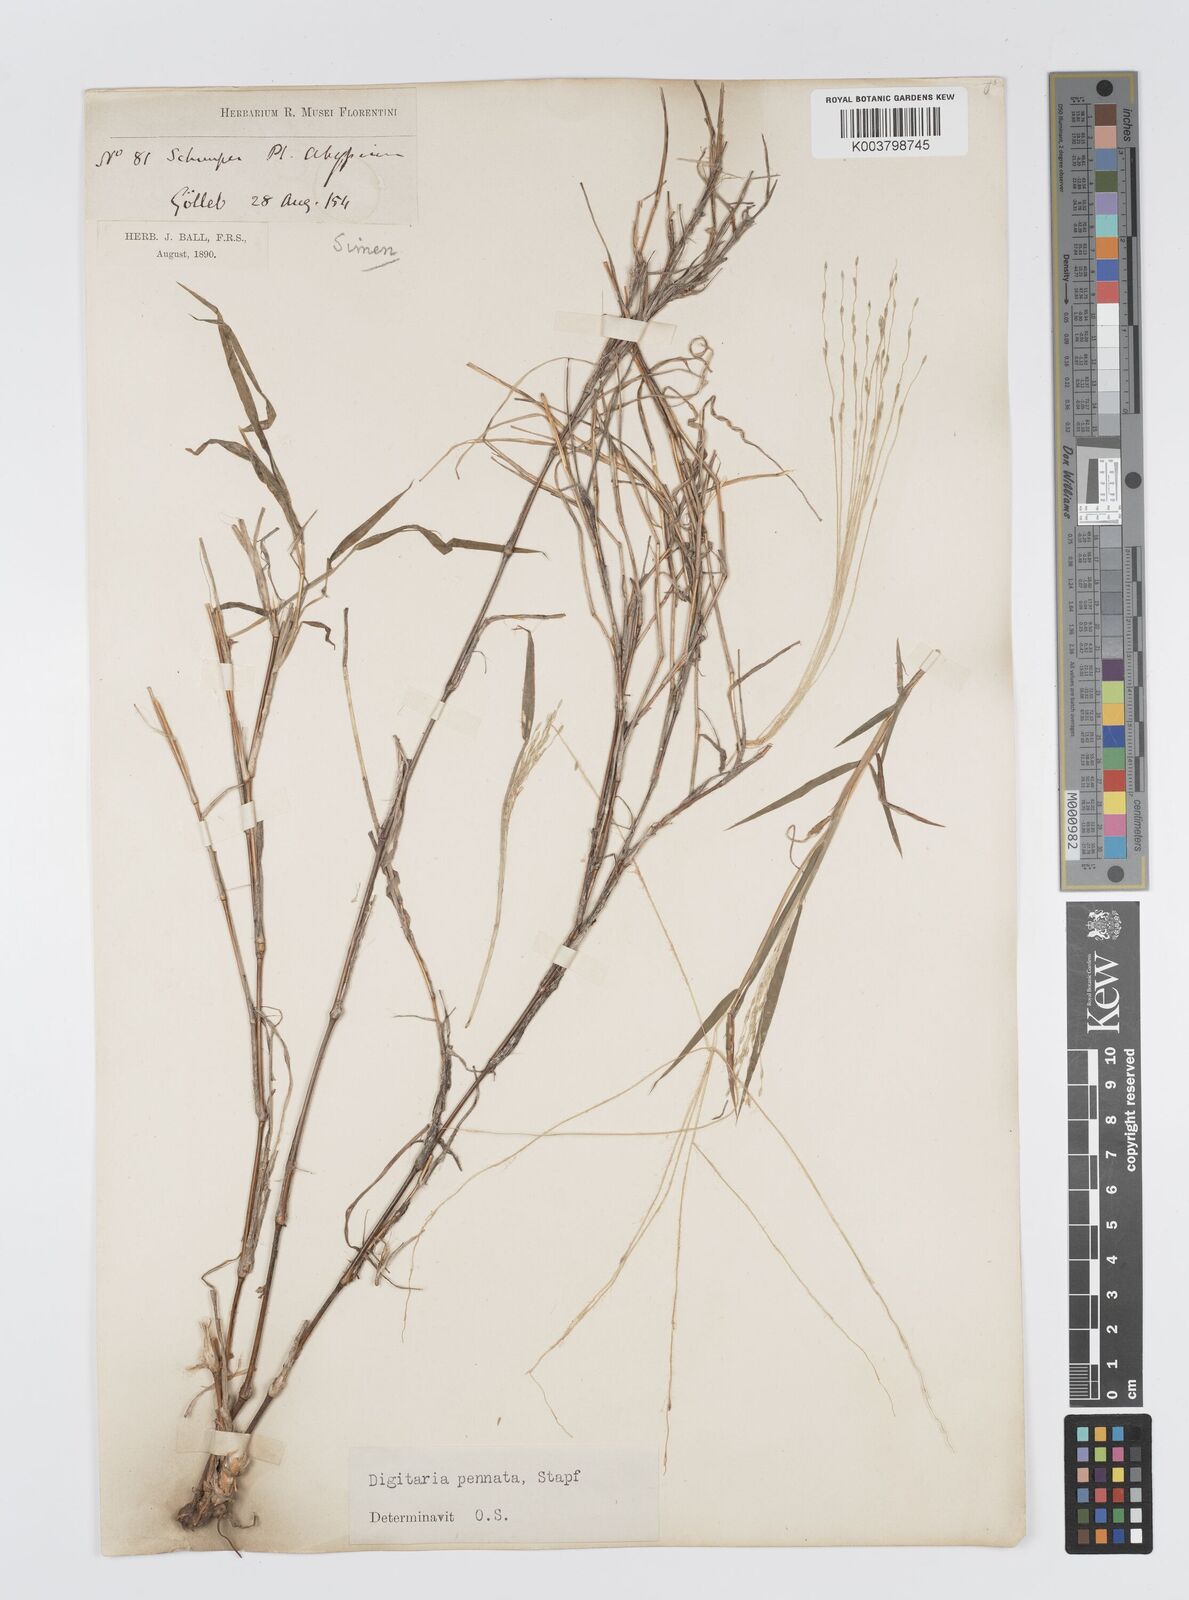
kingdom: Plantae
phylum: Tracheophyta
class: Liliopsida
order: Poales
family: Poaceae
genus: Digitaria
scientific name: Digitaria pennata
